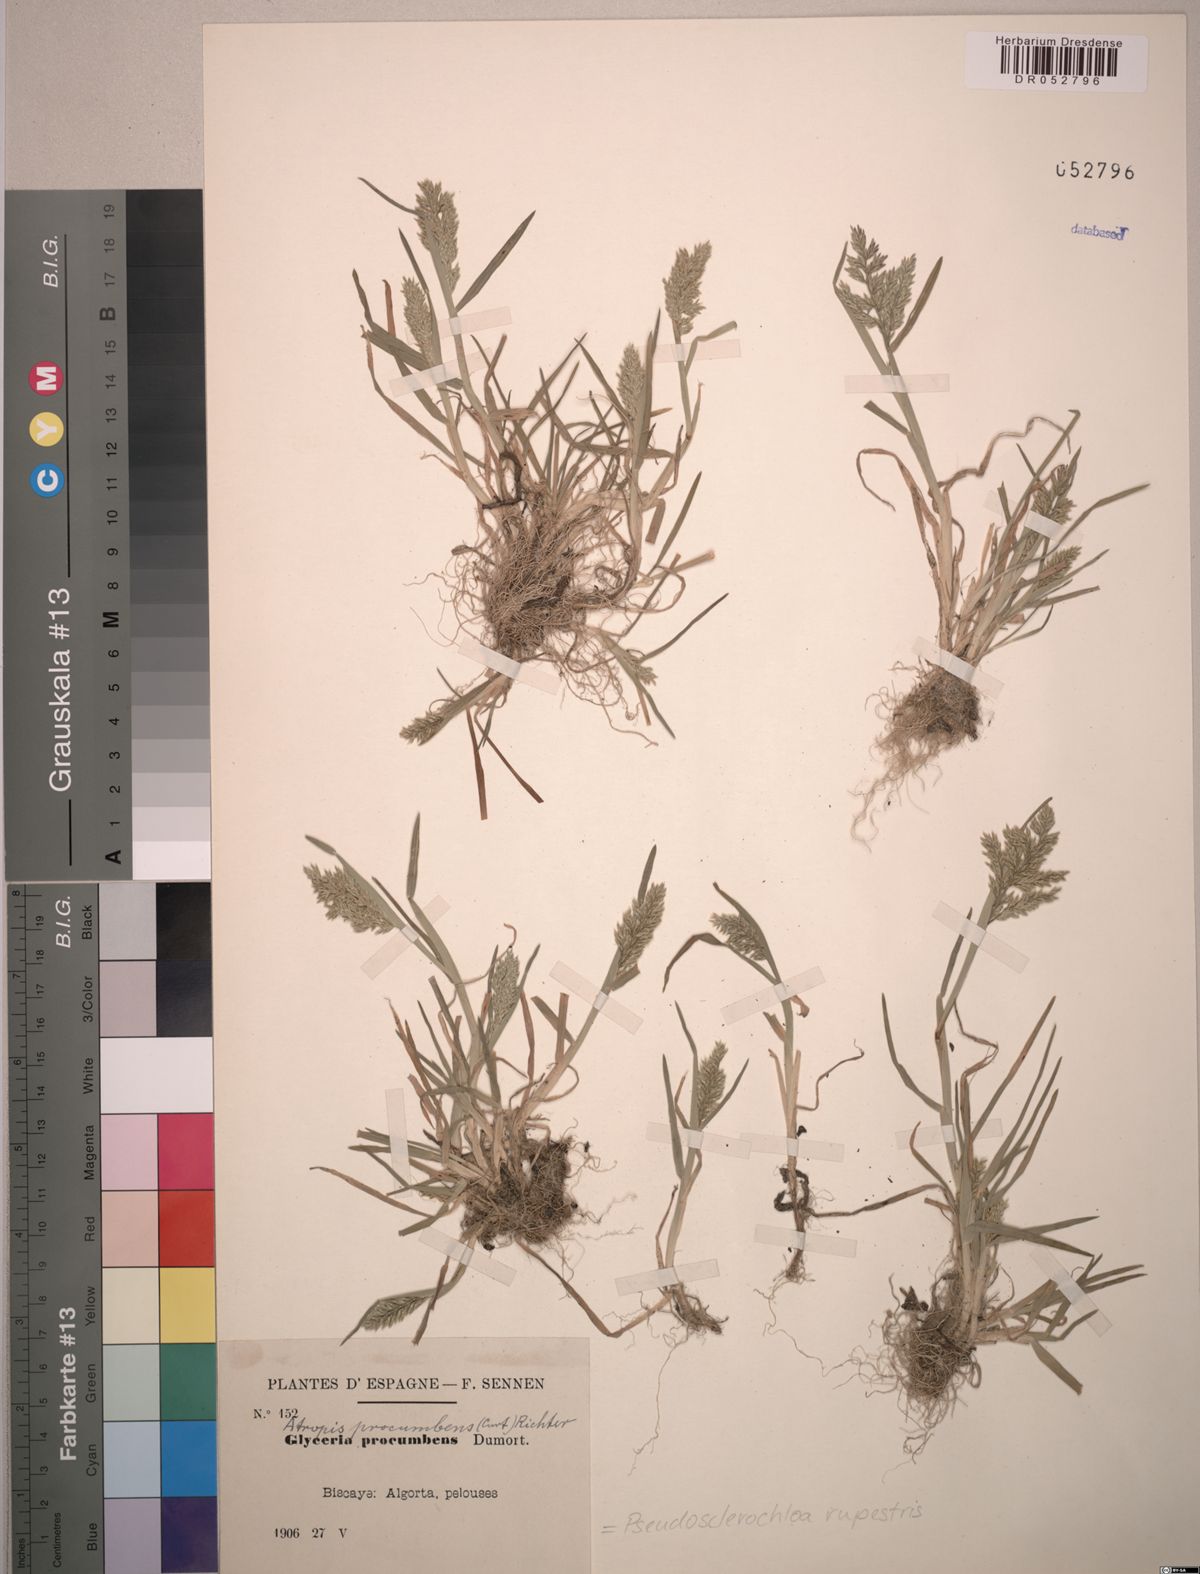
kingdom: Plantae
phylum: Tracheophyta
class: Liliopsida
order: Poales
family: Poaceae
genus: Puccinellia
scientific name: Puccinellia rupestris
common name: Stiff saltmarsh-grass
